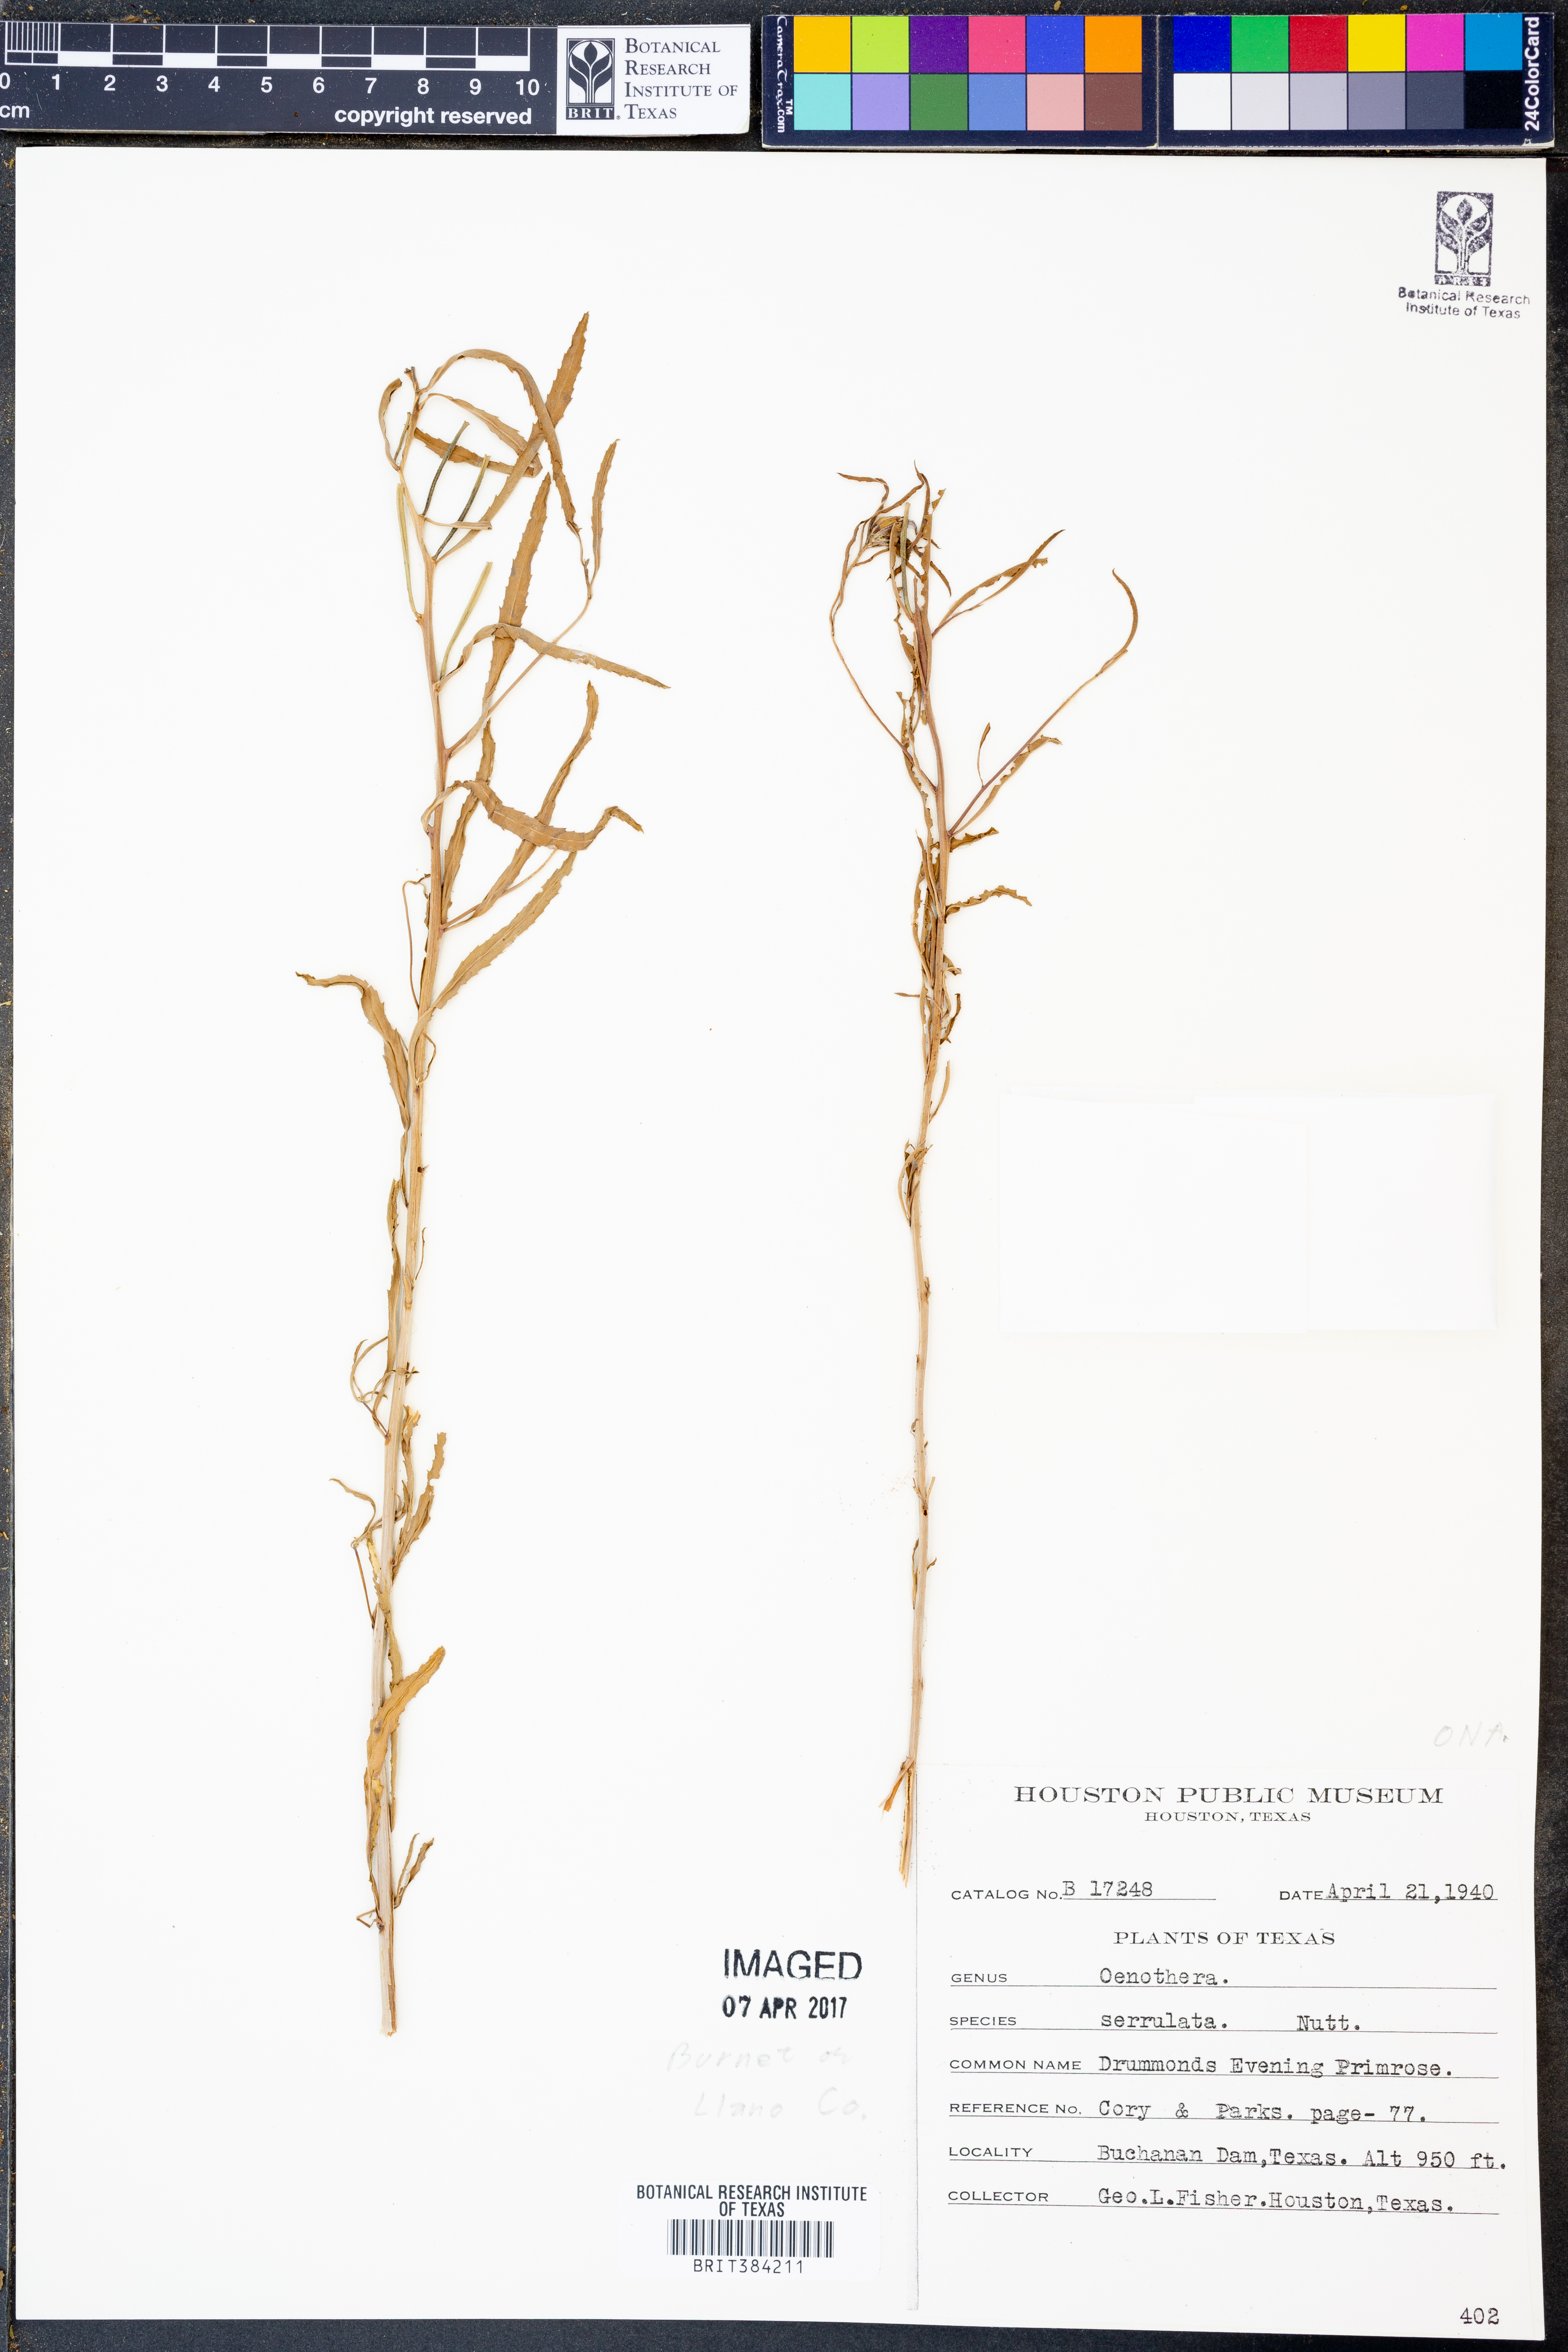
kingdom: Plantae
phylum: Tracheophyta
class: Magnoliopsida
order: Myrtales
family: Onagraceae
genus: Oenothera
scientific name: Oenothera serrulata
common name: Half-shrub calylophus
